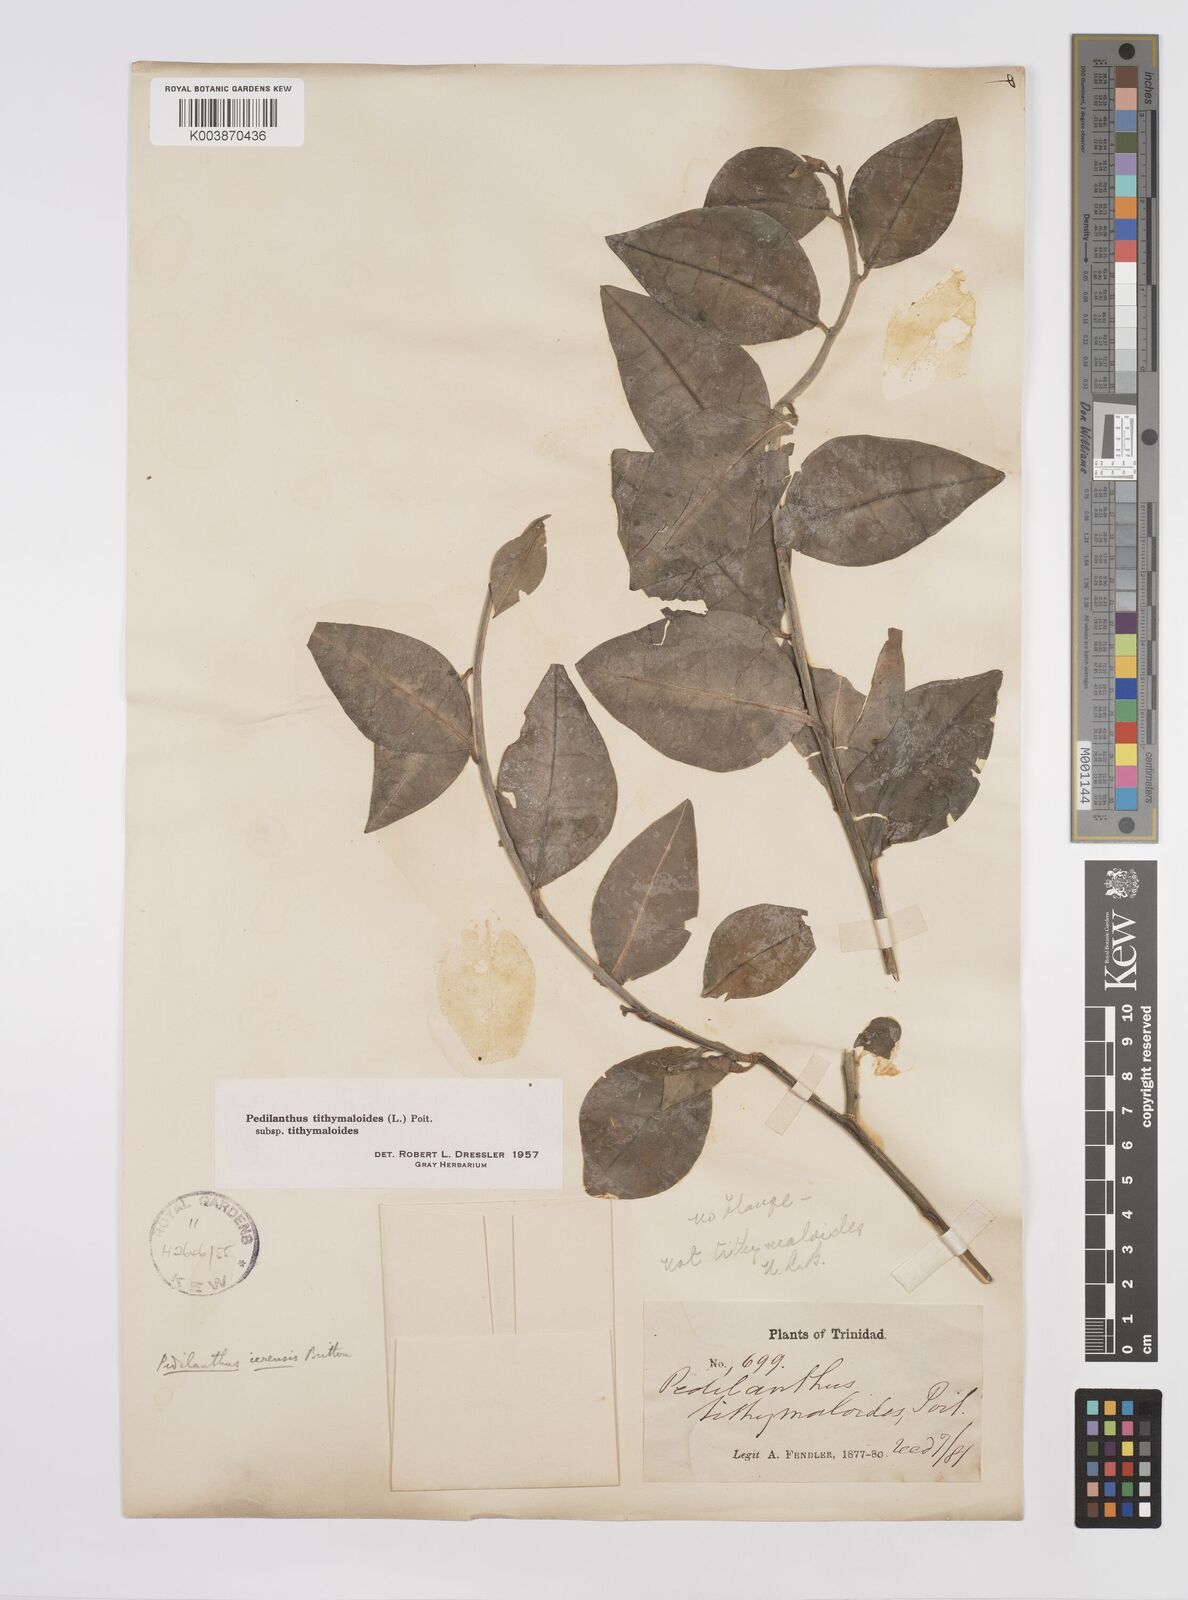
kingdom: Plantae
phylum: Tracheophyta
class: Magnoliopsida
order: Malpighiales
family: Euphorbiaceae
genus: Euphorbia
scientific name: Euphorbia tithymaloides
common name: Slipperplant
